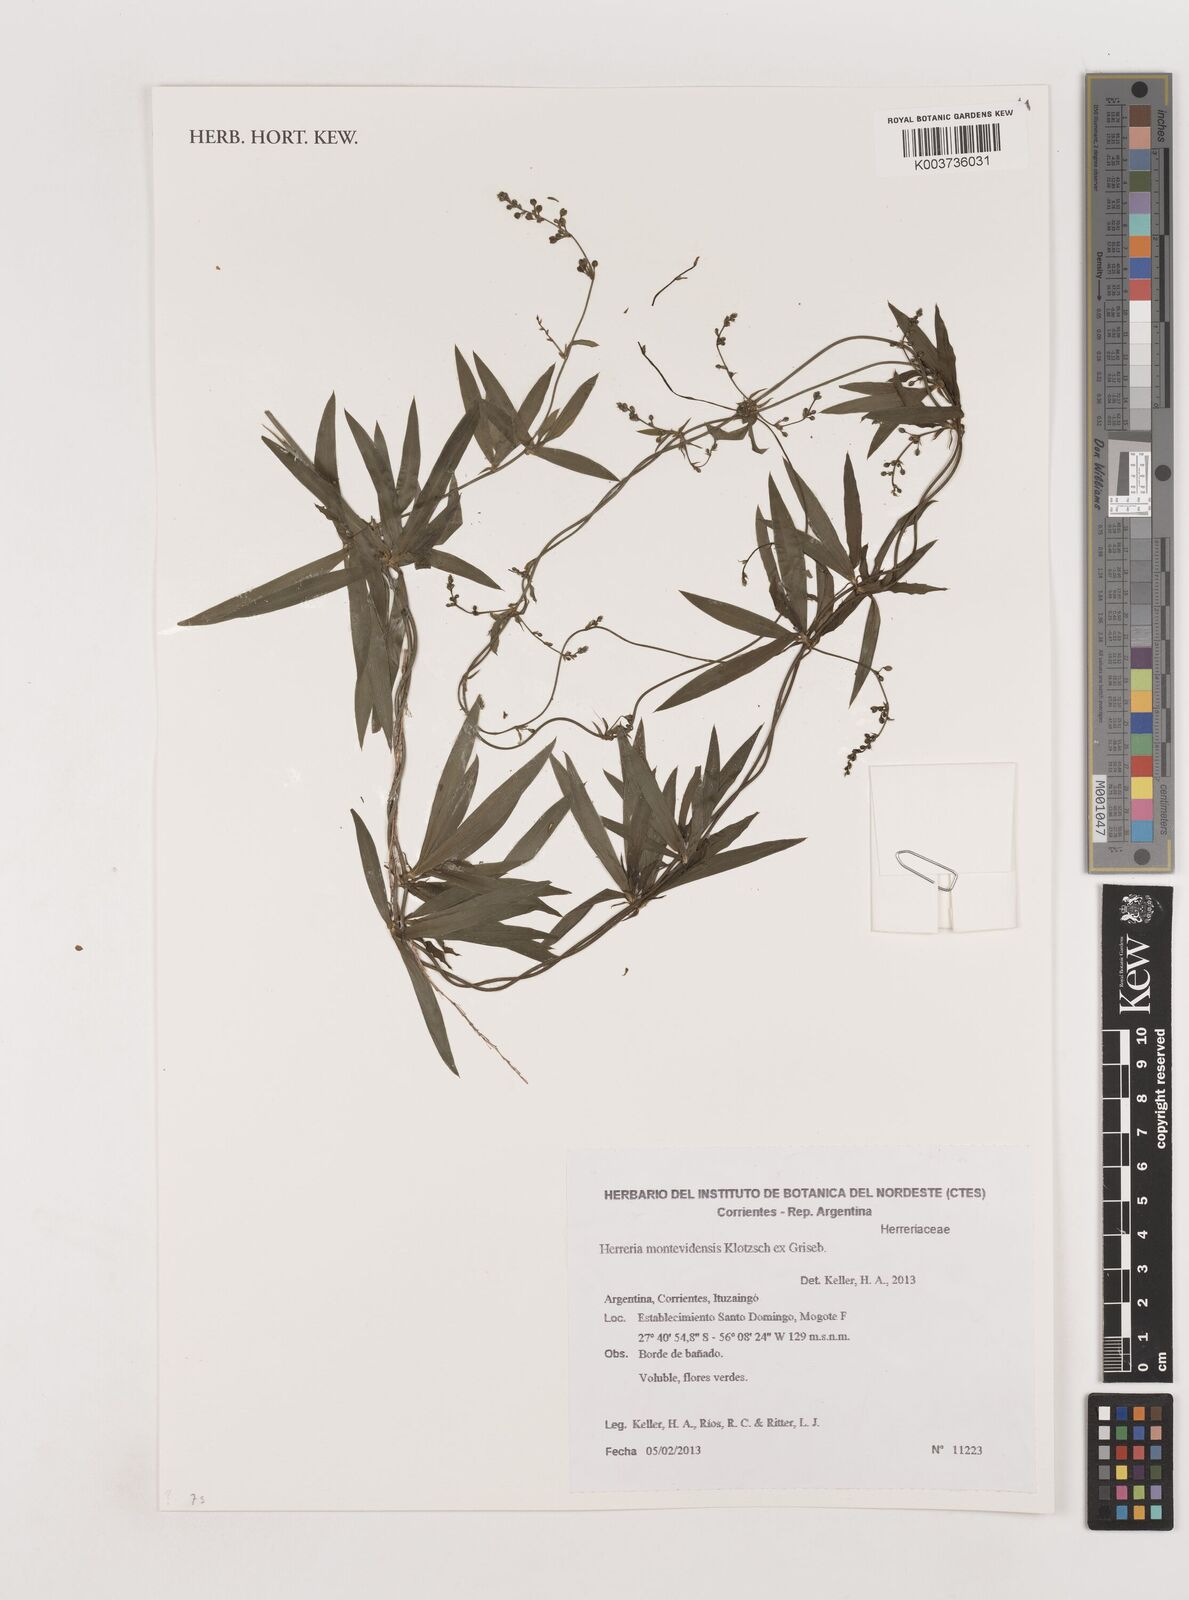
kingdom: Plantae
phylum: Tracheophyta
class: Liliopsida
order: Asparagales
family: Asparagaceae
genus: Herreria
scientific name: Herreria montevidensis
